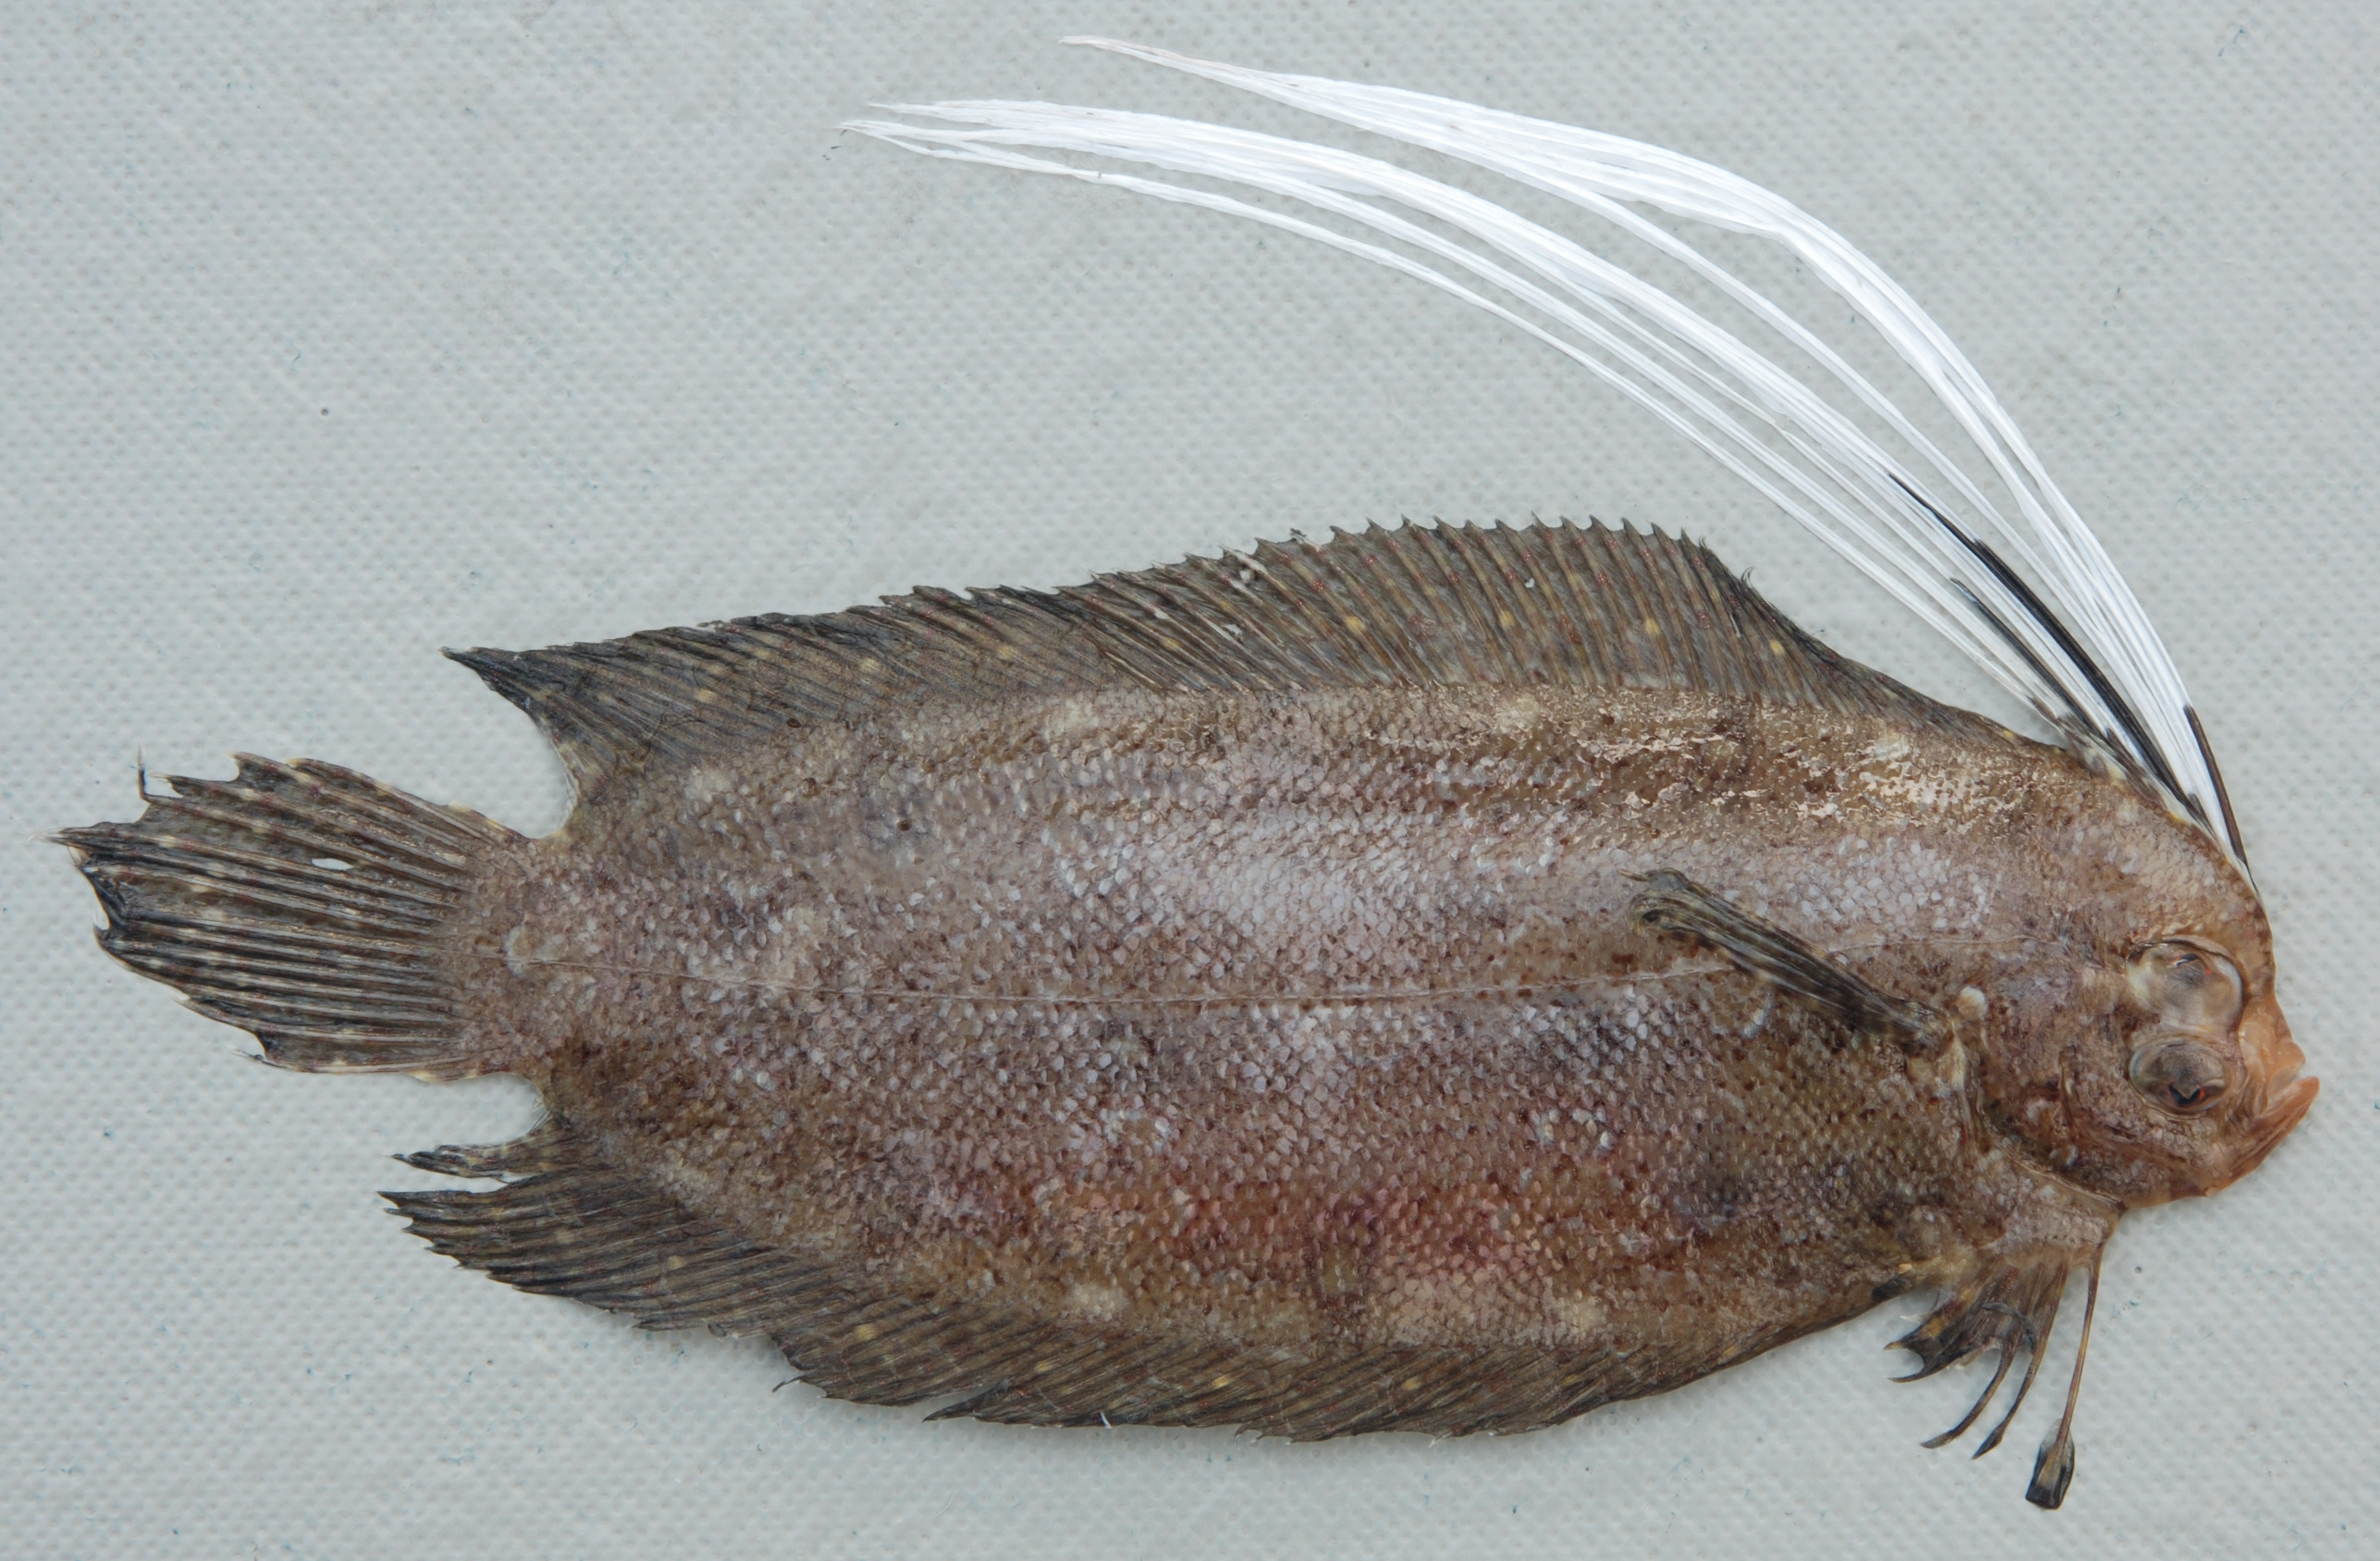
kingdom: Animalia
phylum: Chordata
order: Pleuronectiformes
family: Samaridae
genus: Samaris
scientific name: Samaris cristatus
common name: Cockatoo righteye flounder
